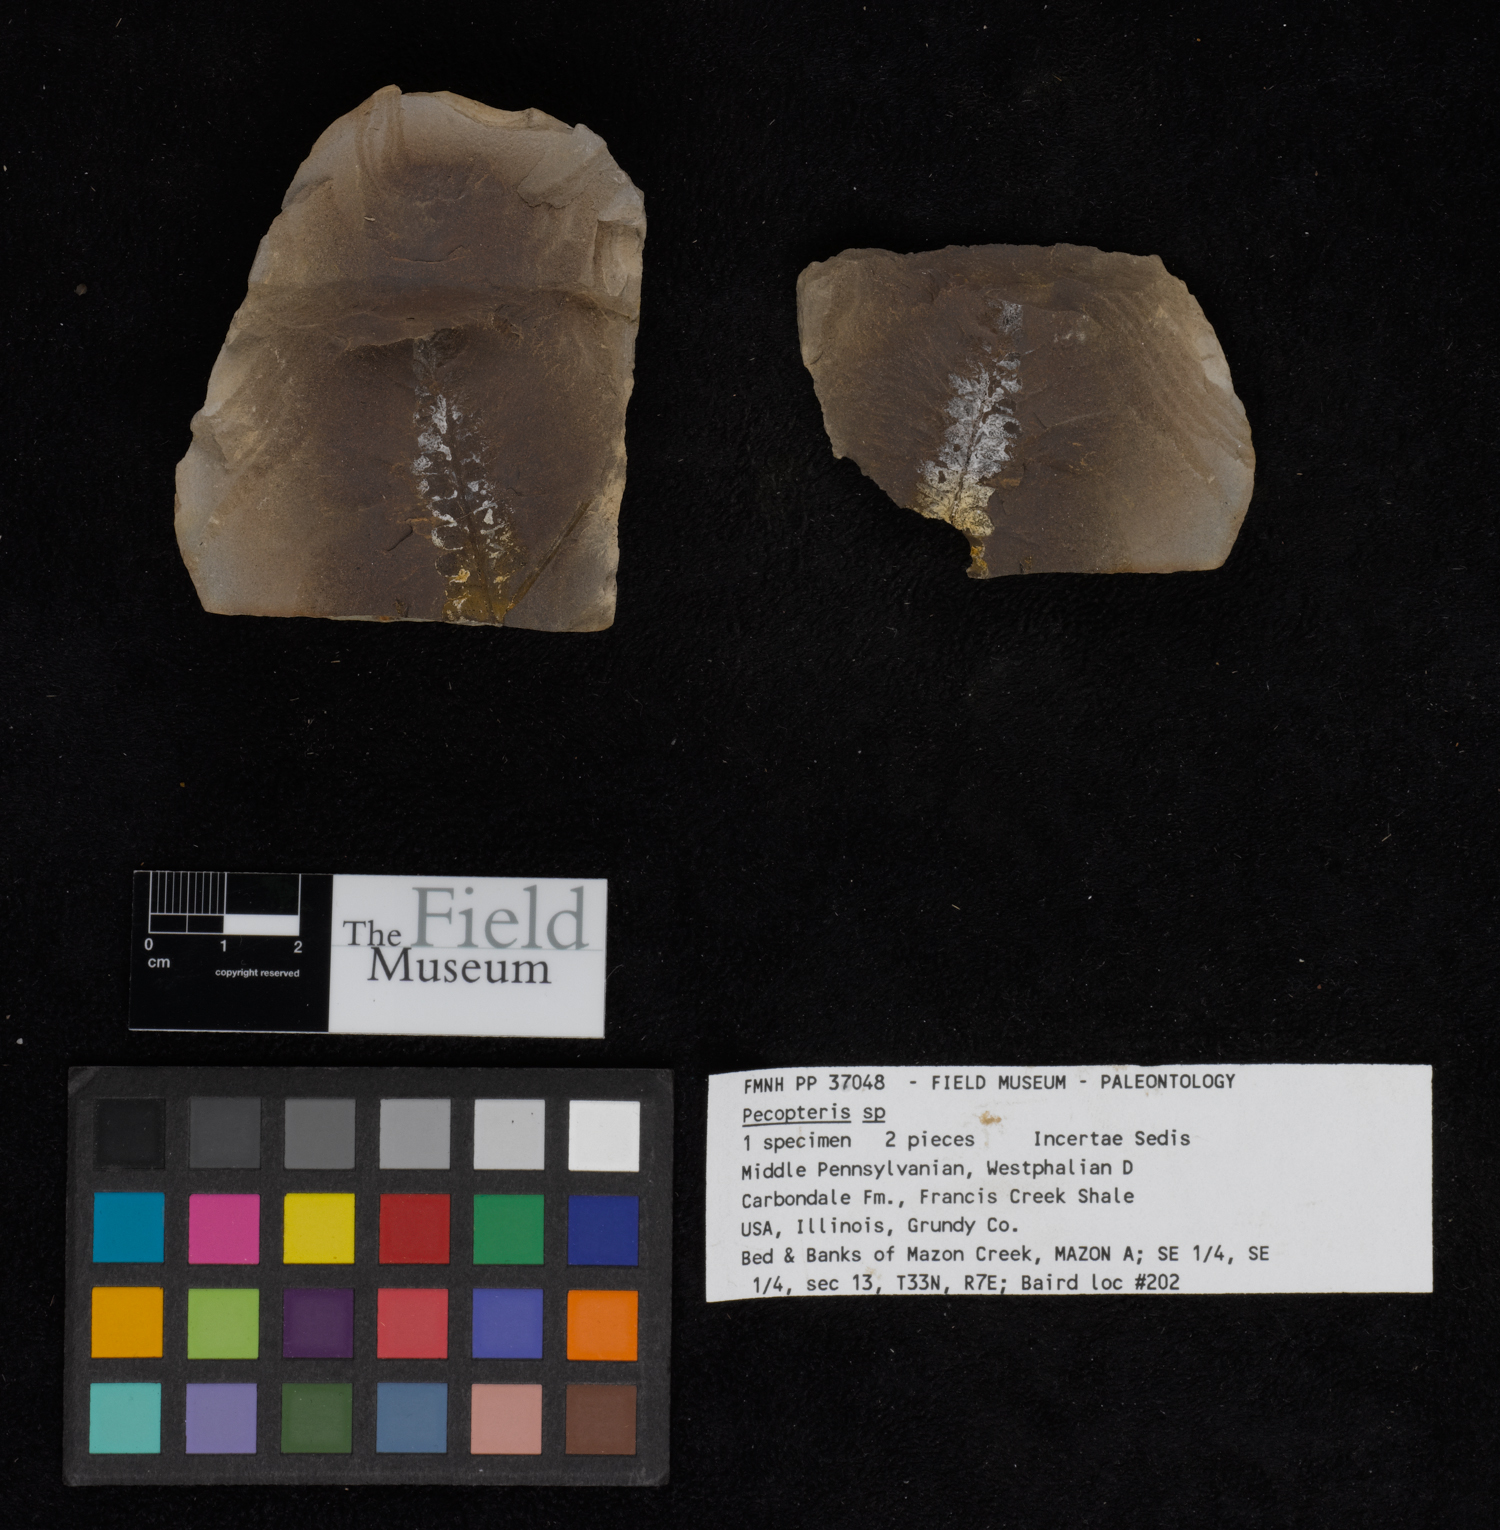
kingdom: Plantae
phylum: Tracheophyta
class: Polypodiopsida
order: Marattiales
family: Asterothecaceae
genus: Pecopteris
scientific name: Pecopteris
